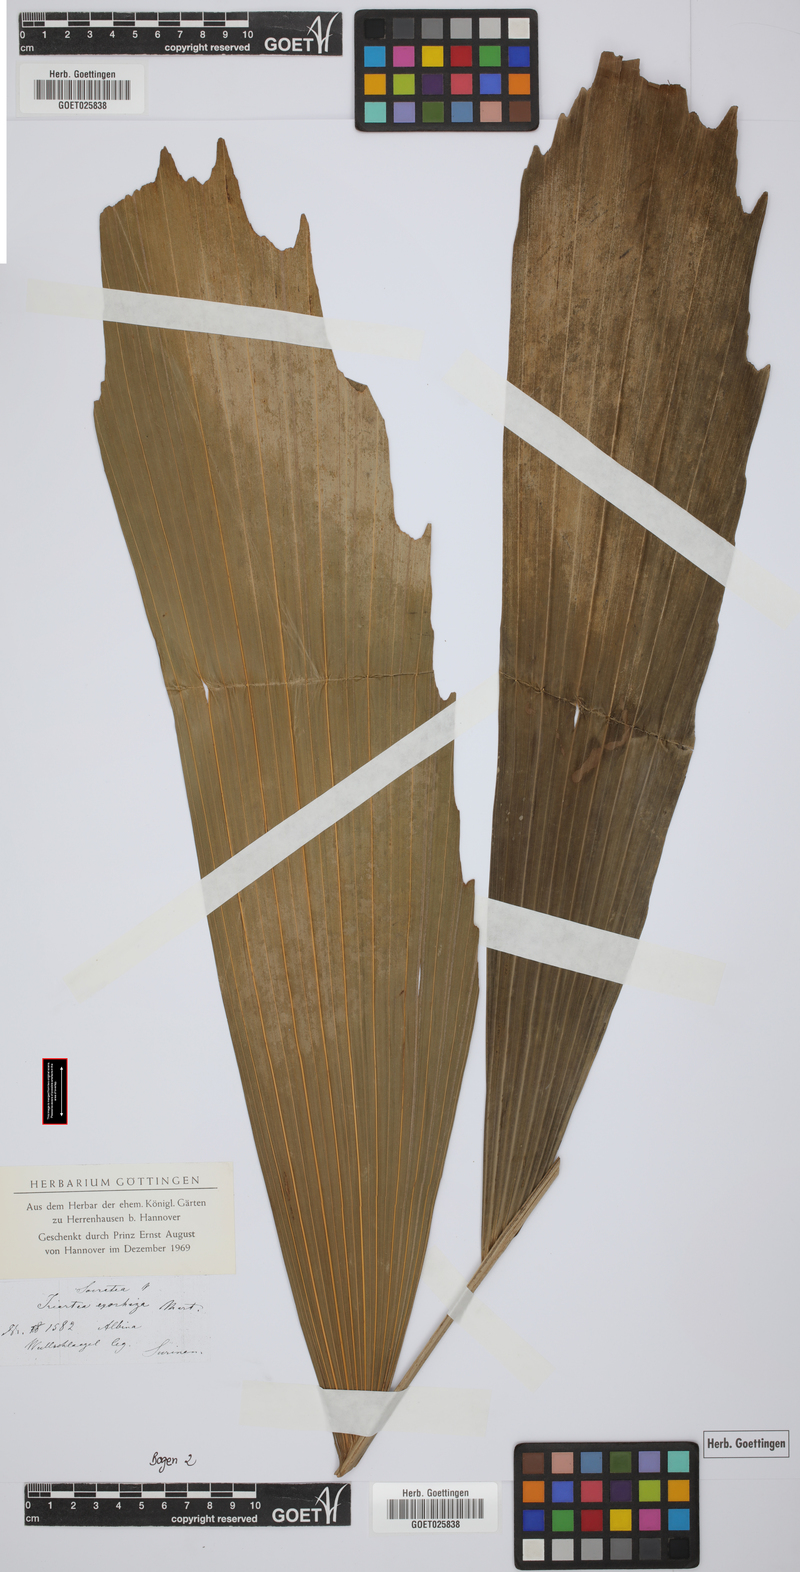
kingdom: Plantae
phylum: Tracheophyta
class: Liliopsida
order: Arecales
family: Arecaceae
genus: Socratea
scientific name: Socratea exorrhiza
